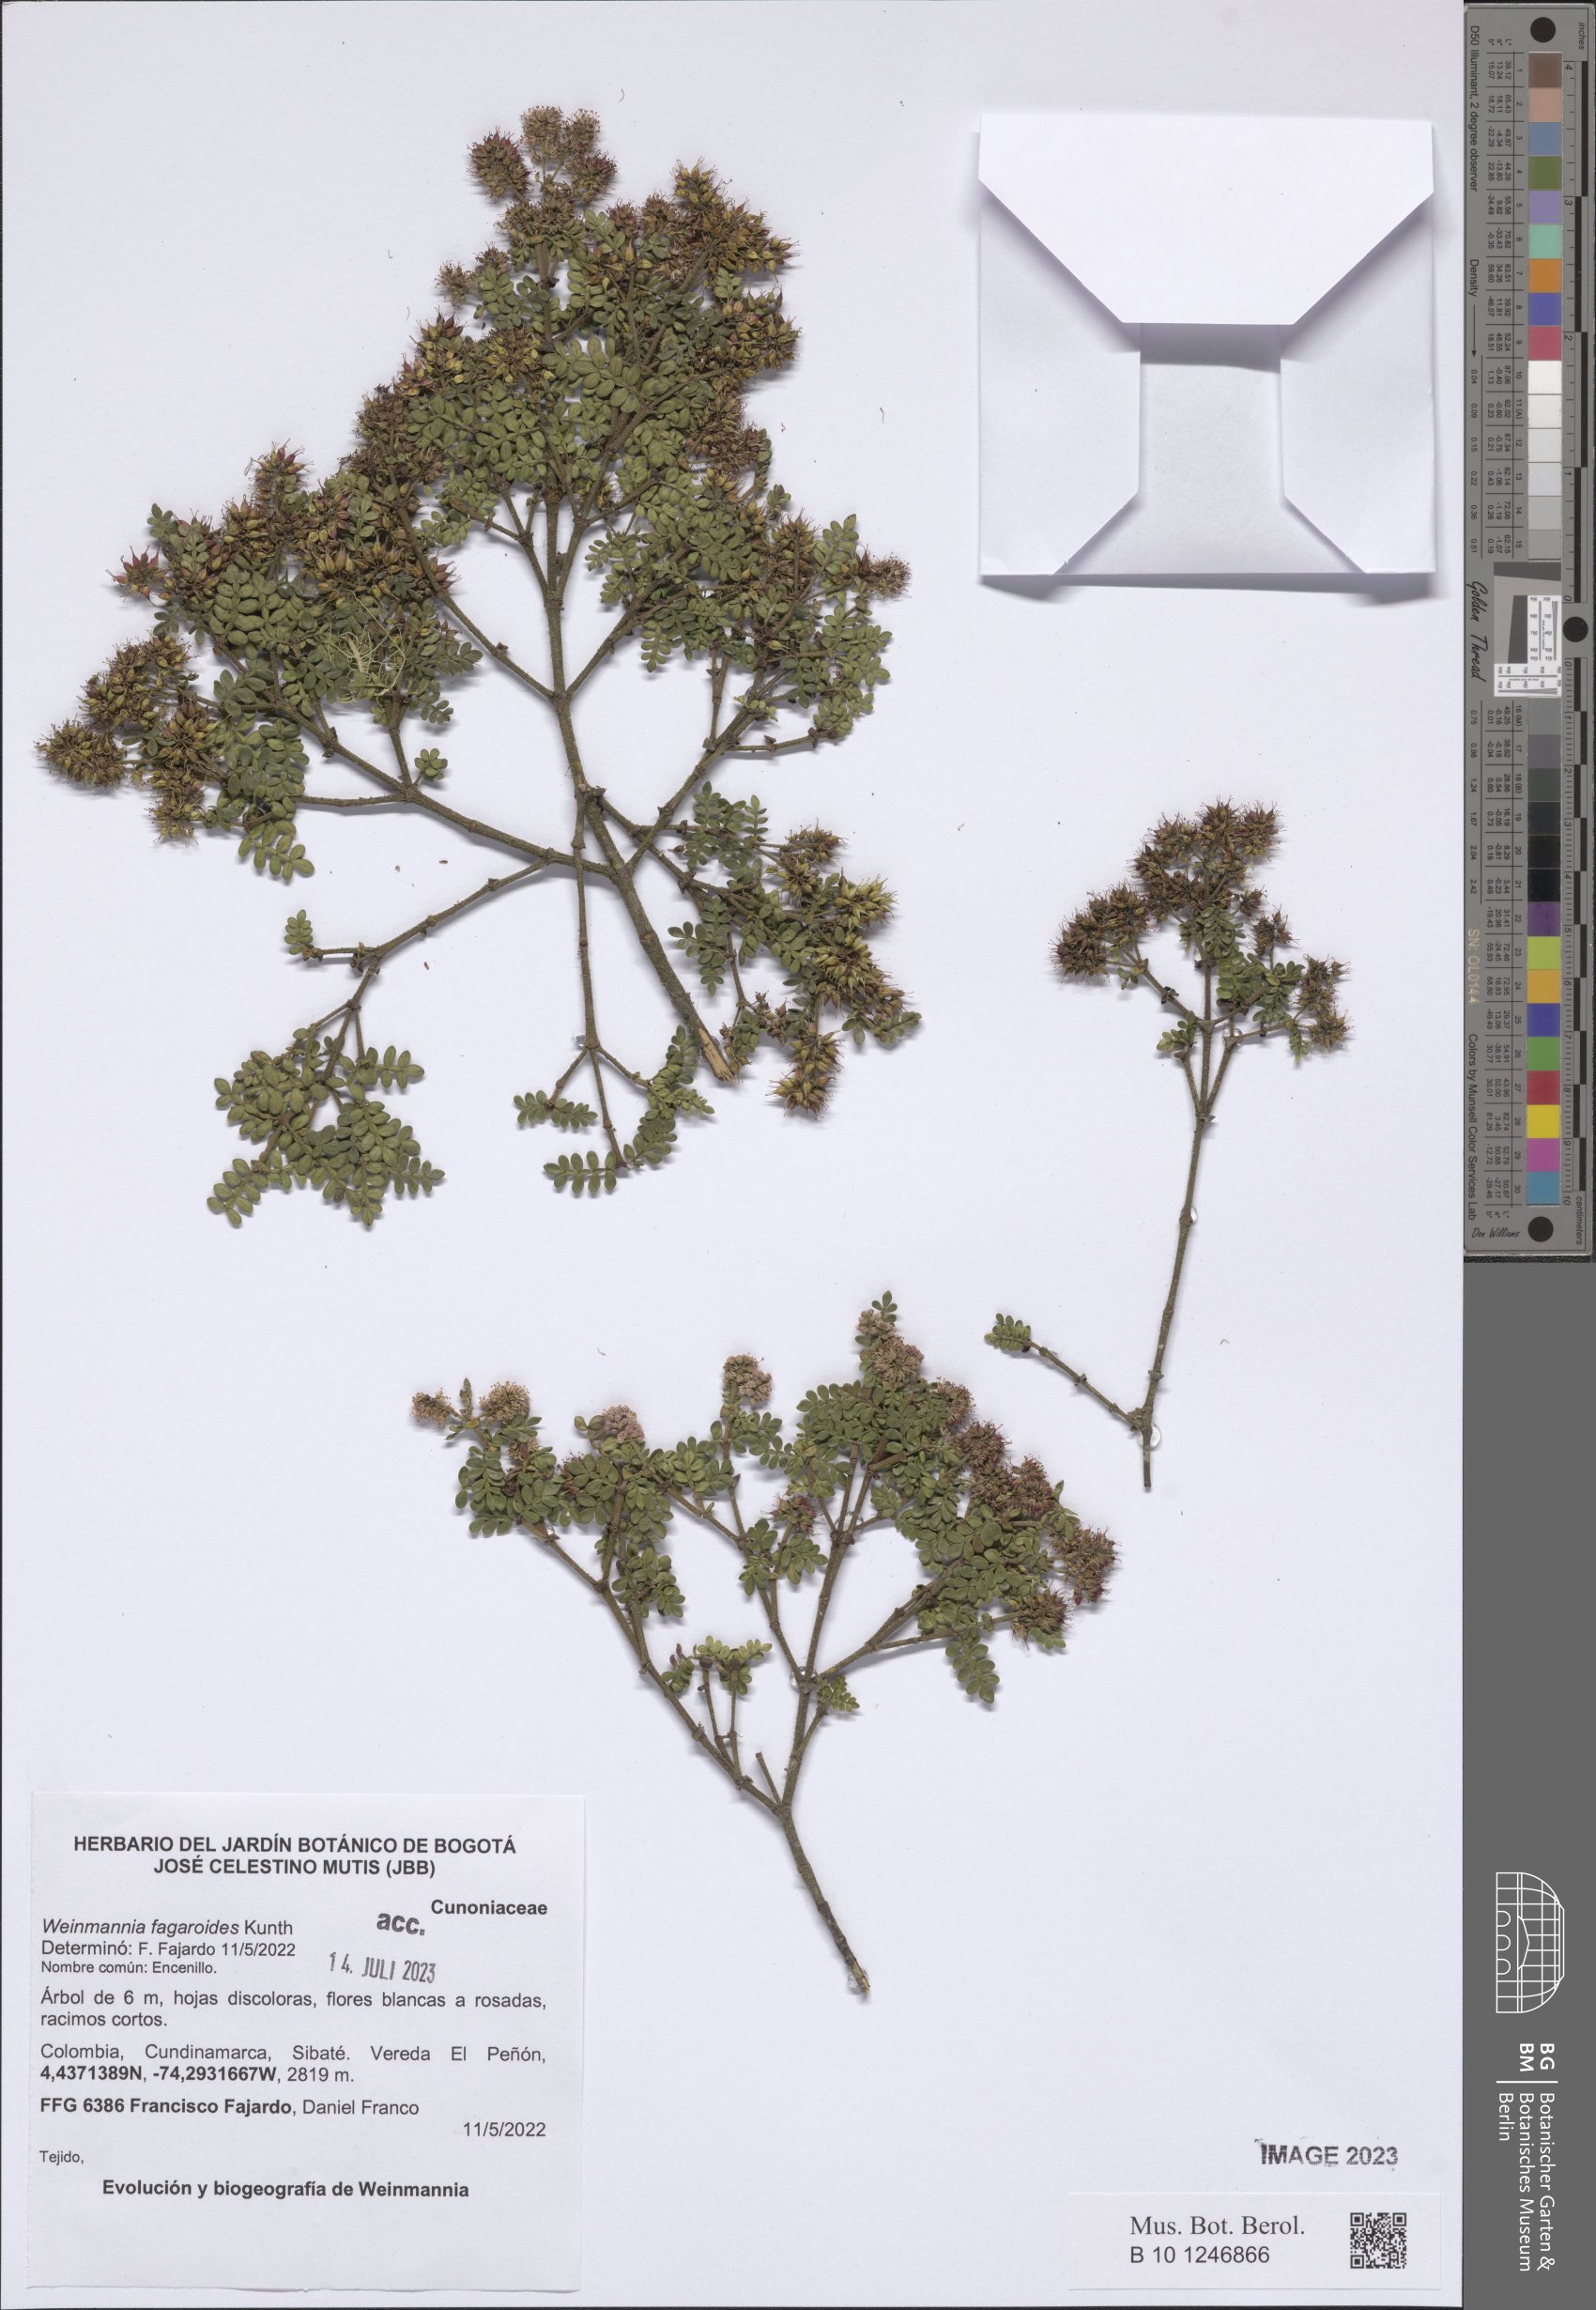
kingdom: Plantae
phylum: Tracheophyta
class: Magnoliopsida
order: Oxalidales
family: Cunoniaceae
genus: Weinmannia
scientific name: Weinmannia fagaroides
